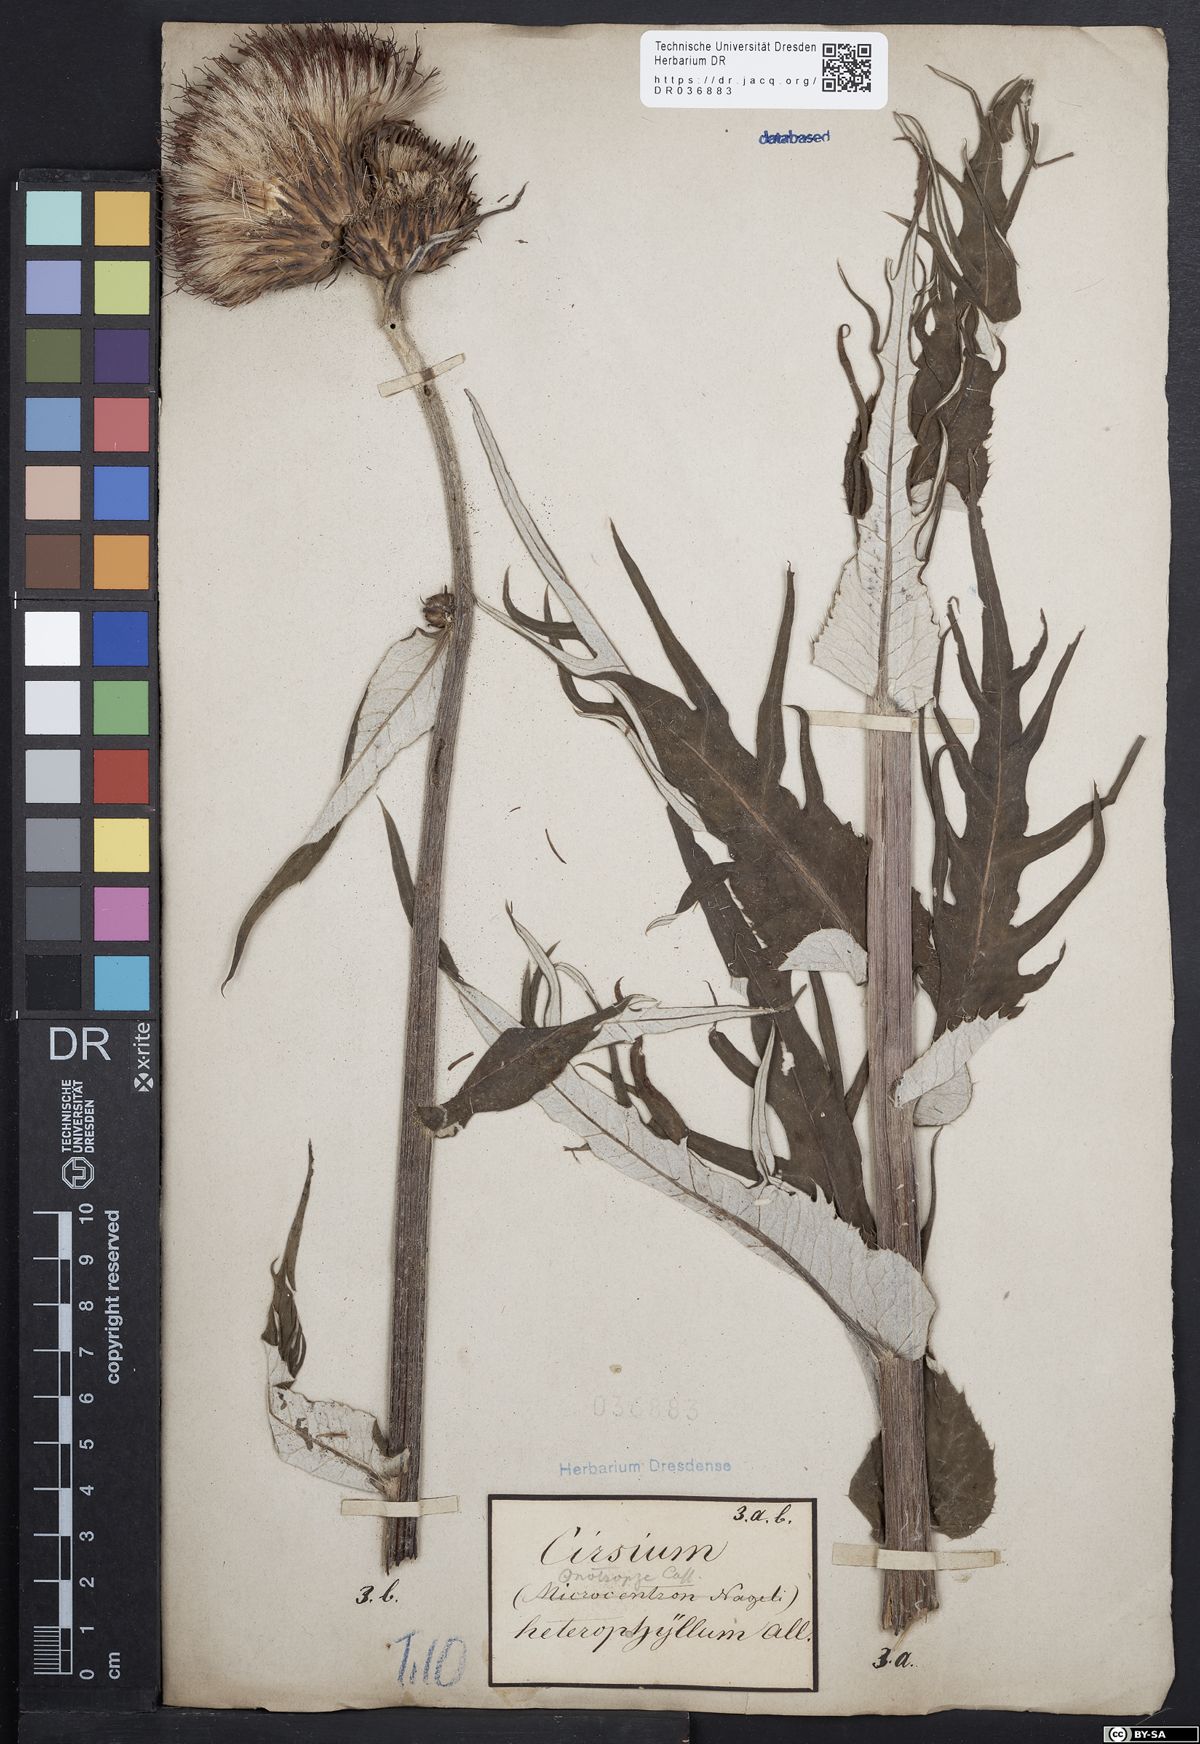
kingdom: Plantae
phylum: Tracheophyta
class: Magnoliopsida
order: Asterales
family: Asteraceae
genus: Cirsium
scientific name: Cirsium helenioides
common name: Melancholy thistle
